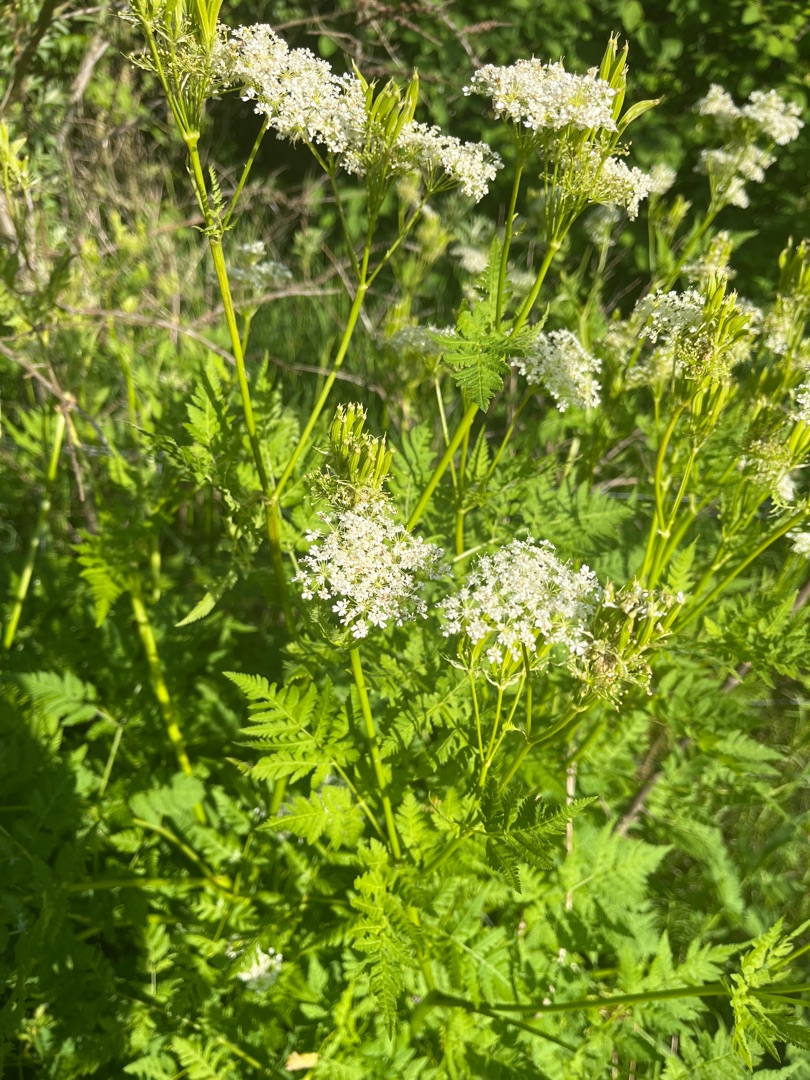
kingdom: Plantae
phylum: Tracheophyta
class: Magnoliopsida
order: Apiales
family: Apiaceae
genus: Myrrhis
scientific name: Myrrhis odorata
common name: Sødskærm
